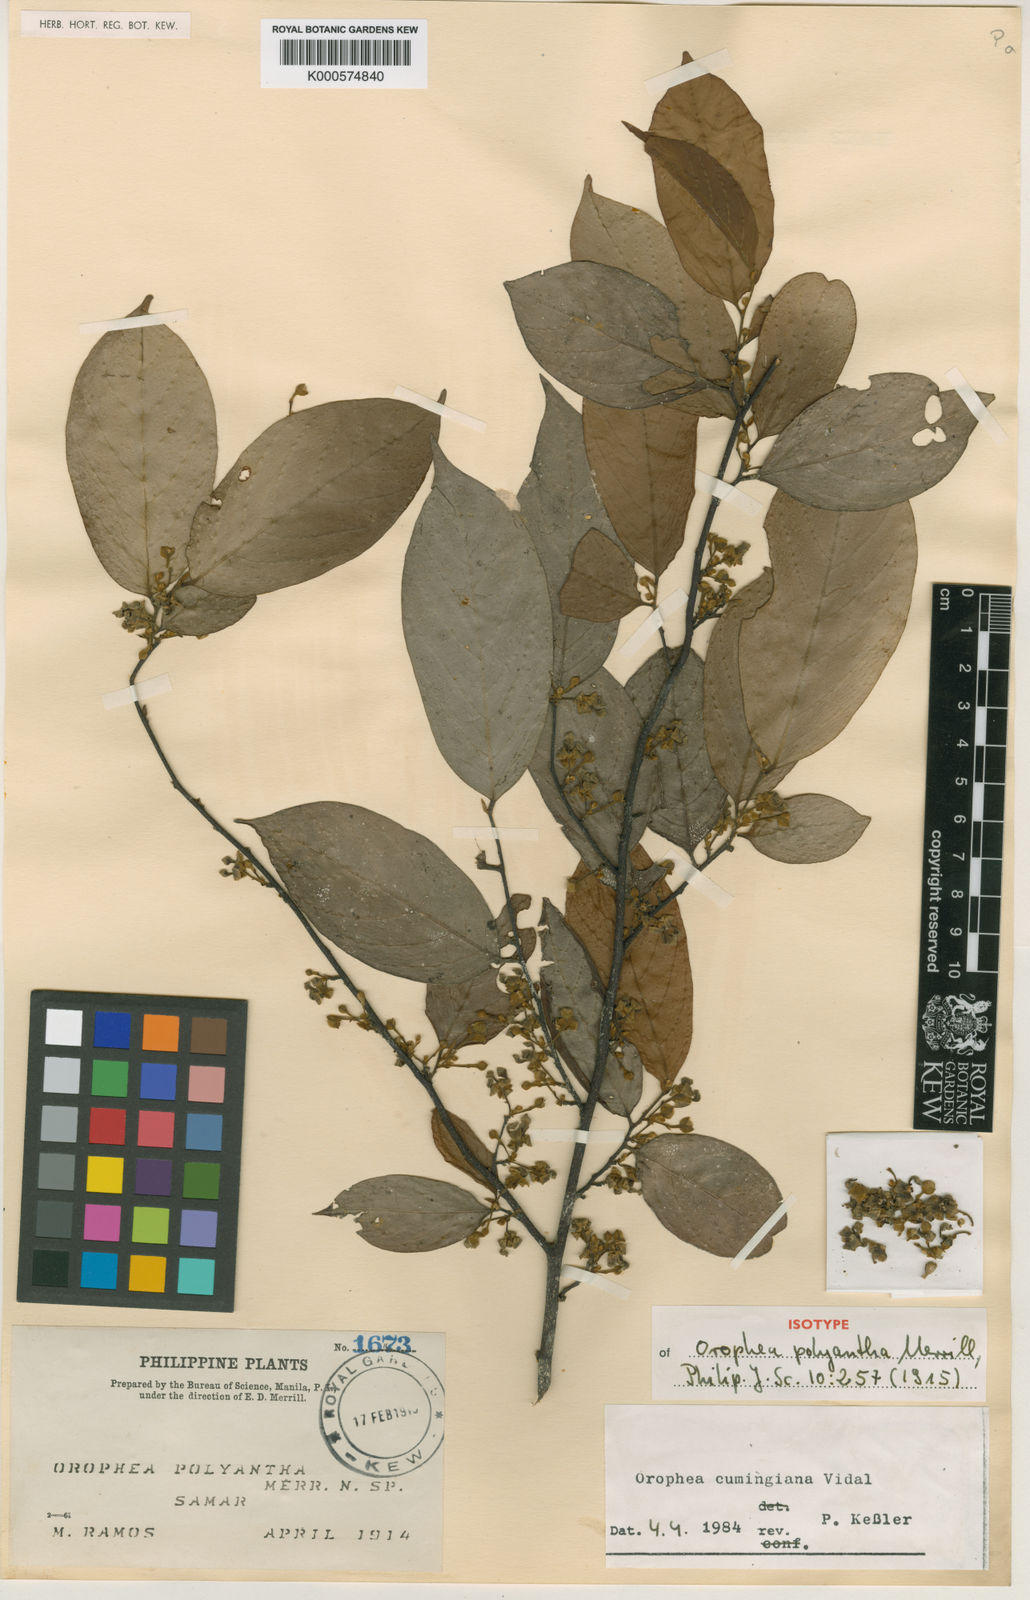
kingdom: Plantae
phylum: Tracheophyta
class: Magnoliopsida
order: Magnoliales
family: Annonaceae
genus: Orophea
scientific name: Orophea cumingiana
